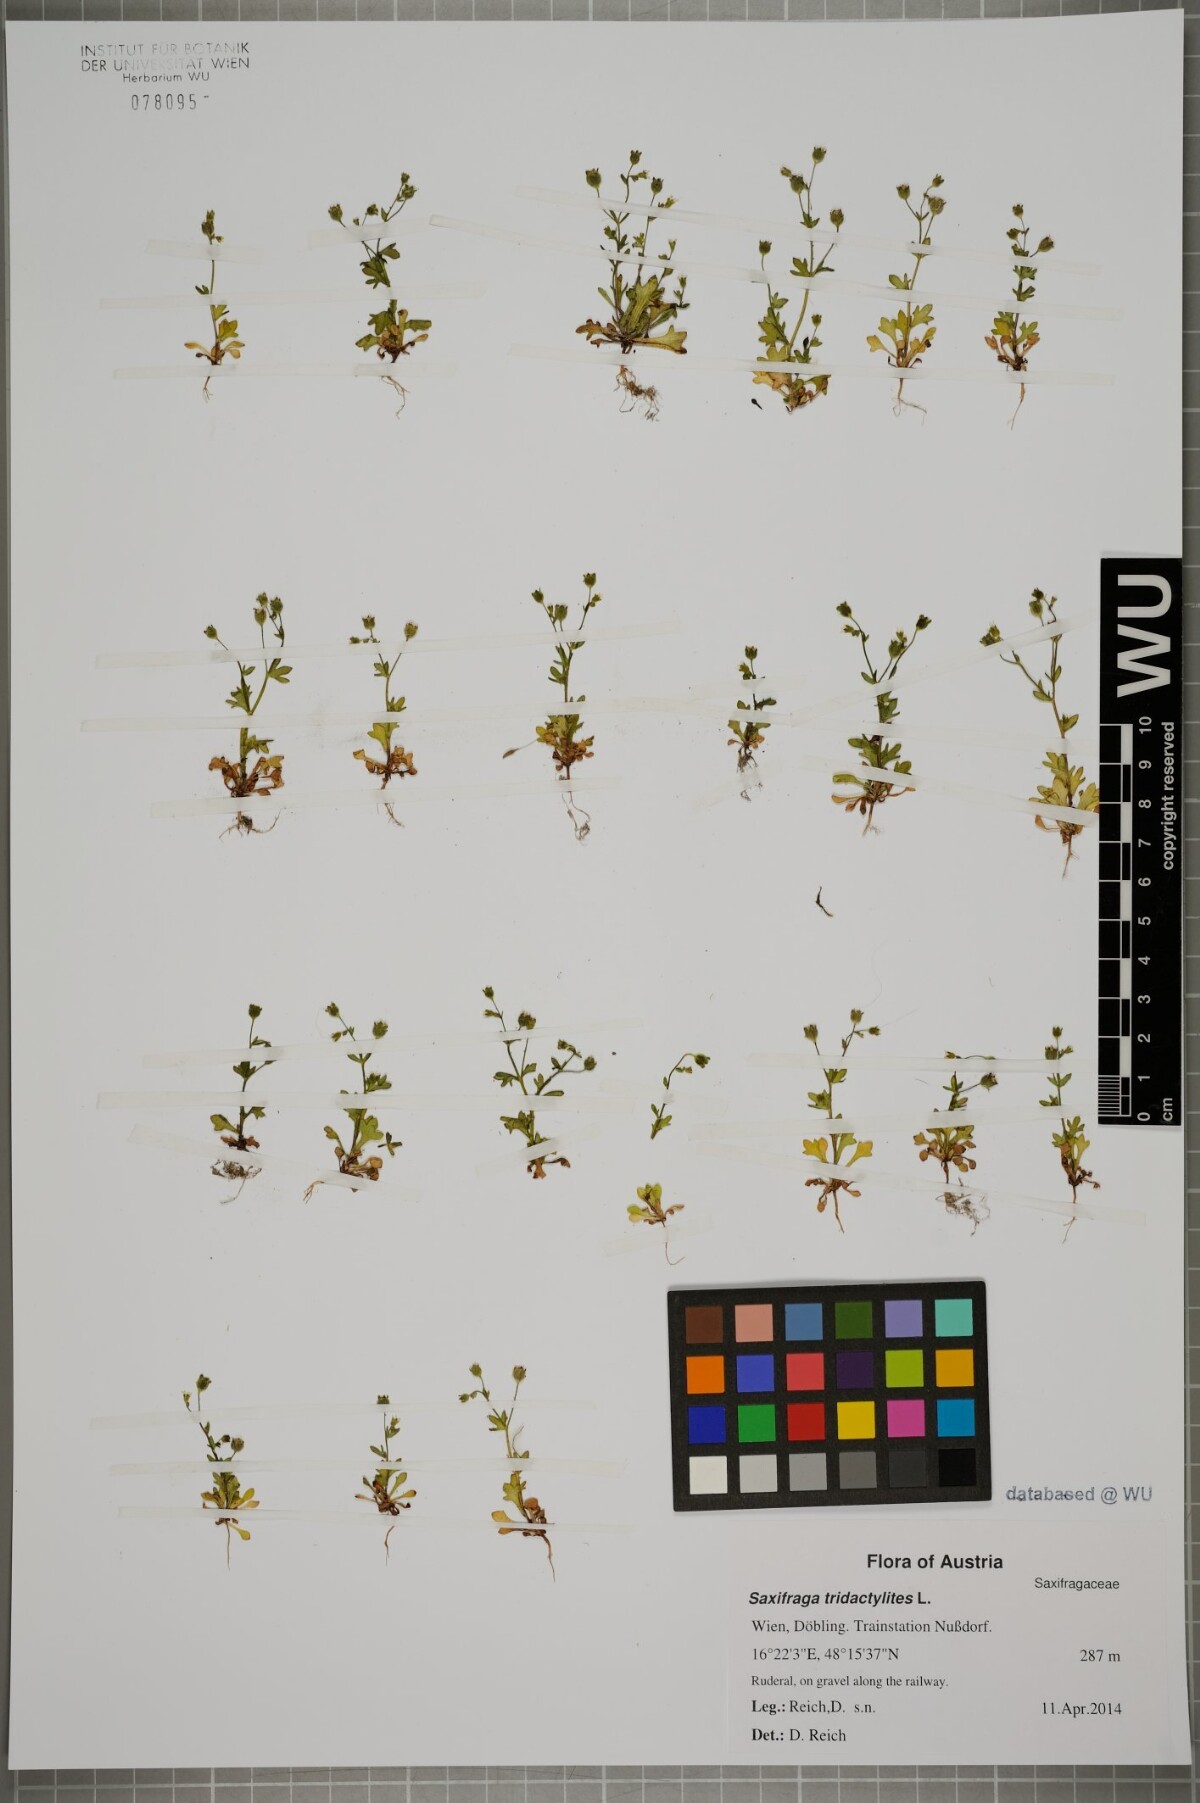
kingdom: Plantae
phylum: Tracheophyta
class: Magnoliopsida
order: Saxifragales
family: Saxifragaceae
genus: Saxifraga
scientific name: Saxifraga tridactylites
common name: Rue-leaved saxifrage
